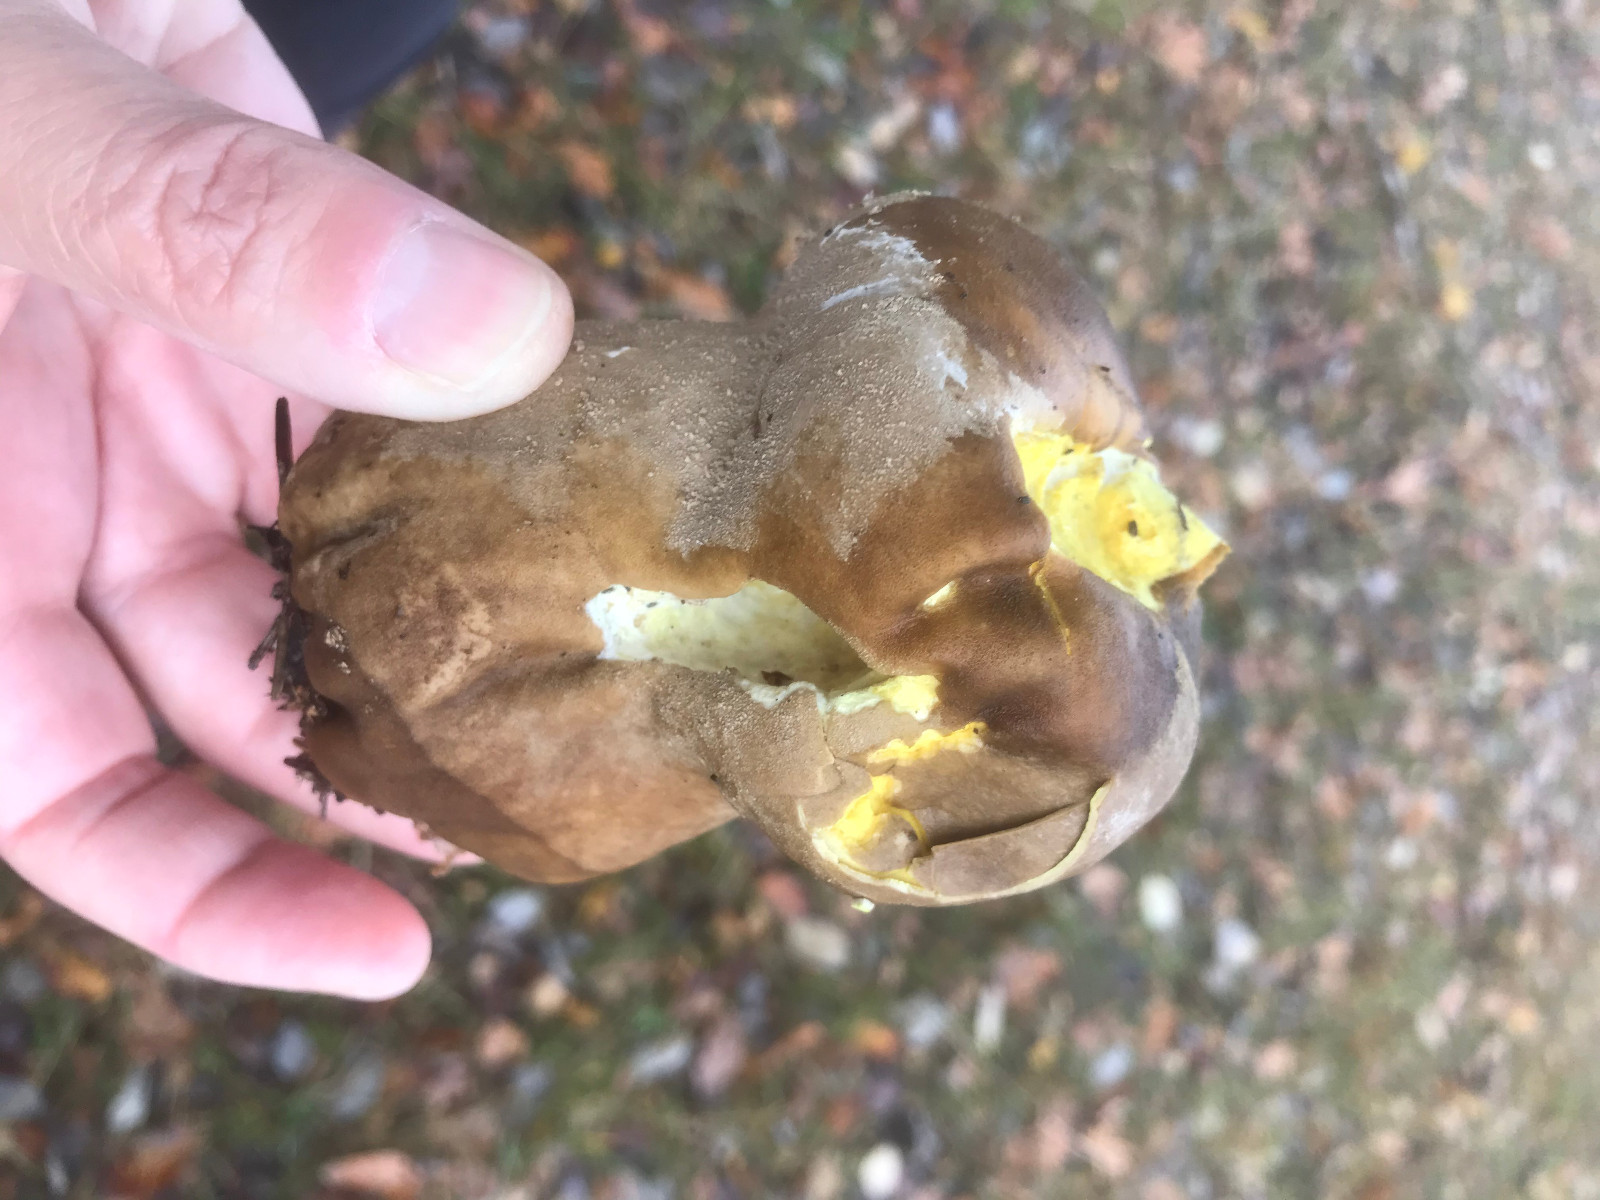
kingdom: Fungi
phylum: Basidiomycota
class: Agaricomycetes
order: Agaricales
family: Lycoperdaceae
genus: Bovistella
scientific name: Bovistella utriformis
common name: skællet støvbold
